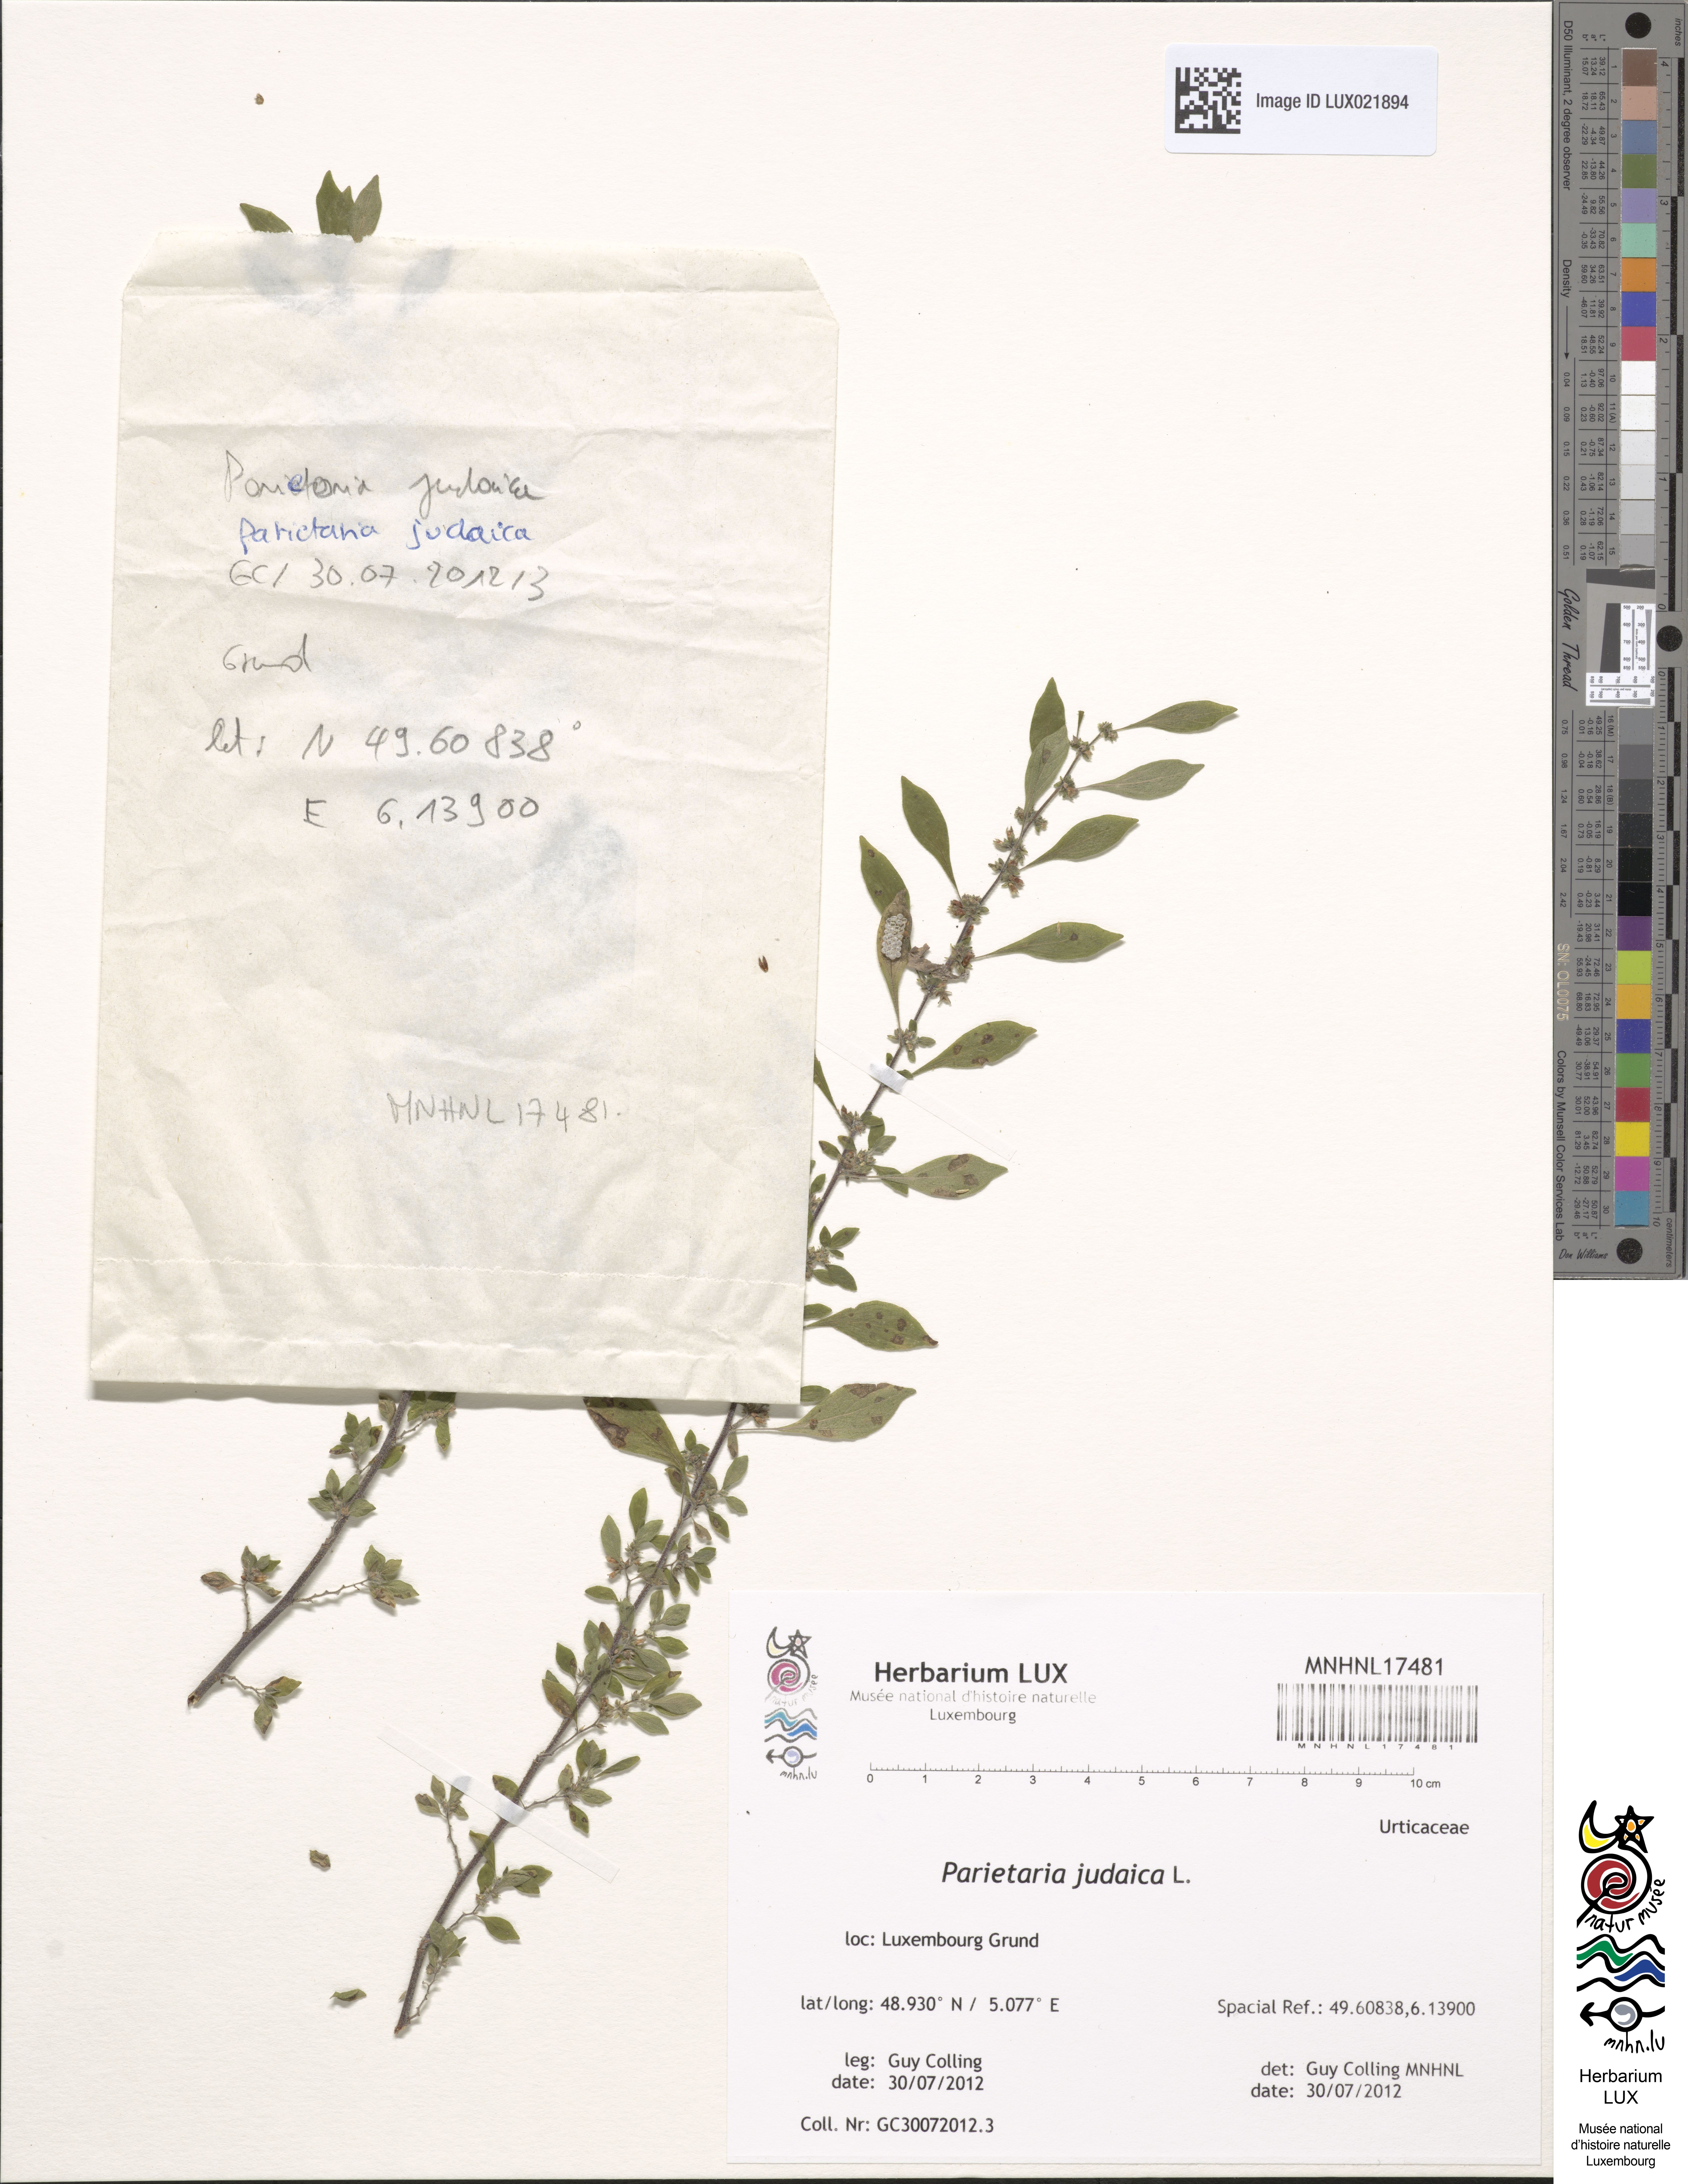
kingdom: Plantae
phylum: Tracheophyta
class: Magnoliopsida
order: Rosales
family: Urticaceae
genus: Parietaria
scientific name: Parietaria judaica
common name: Pellitory-of-the-wall
